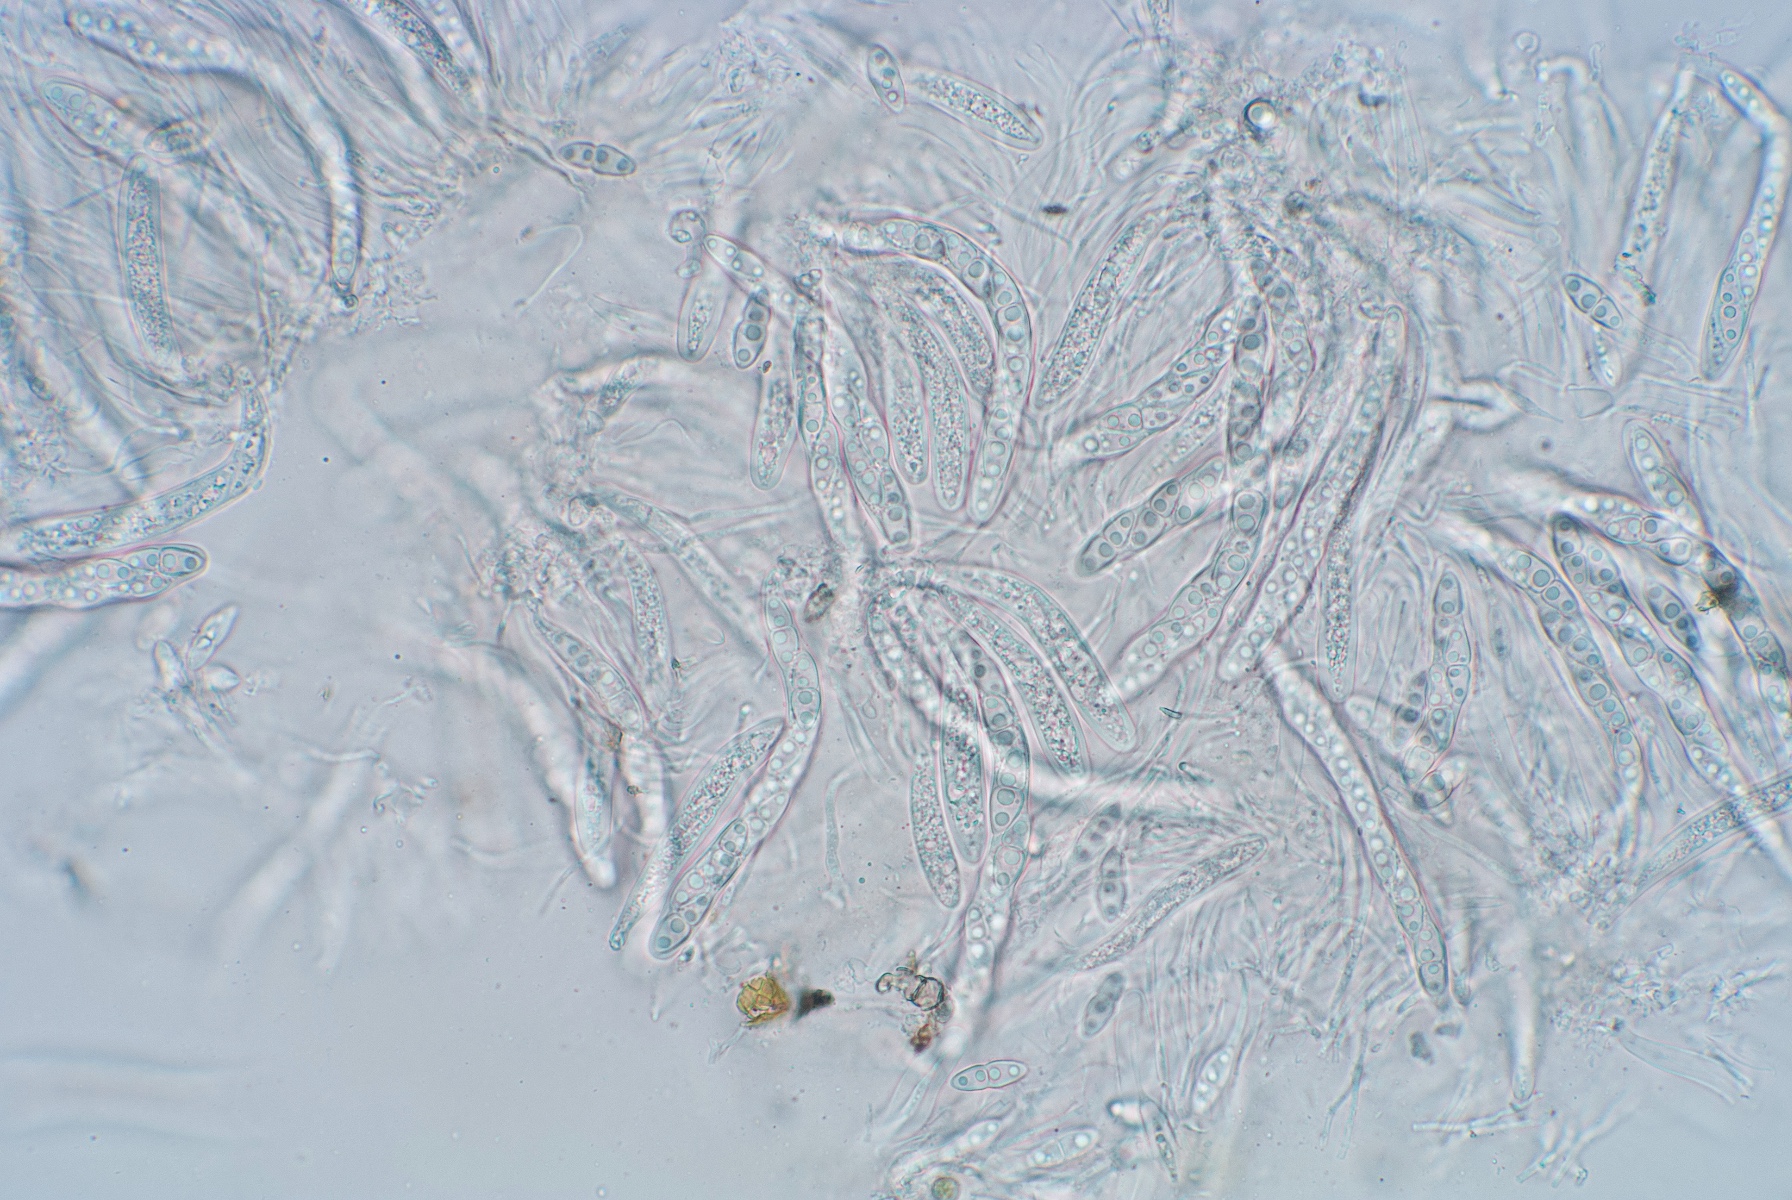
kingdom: Plantae
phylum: Bryophyta
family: Dothideomycetes
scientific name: Dothideomycetes
